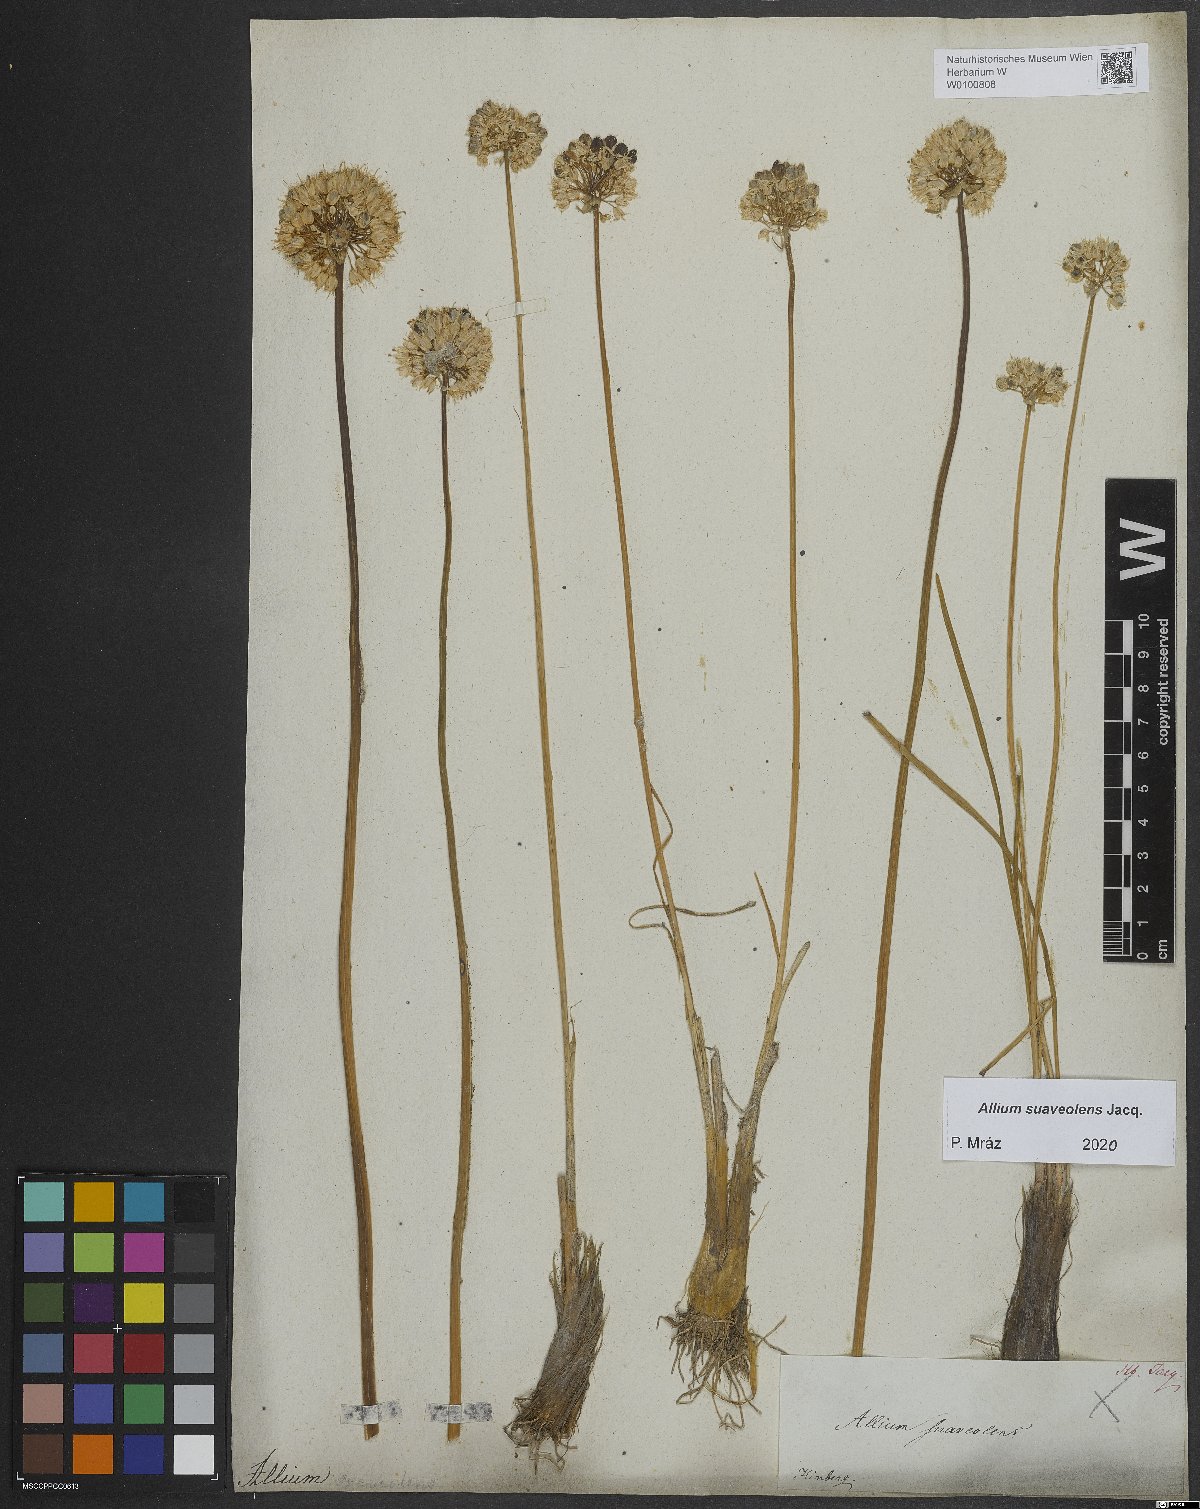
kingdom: Plantae
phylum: Tracheophyta
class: Liliopsida
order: Asparagales
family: Amaryllidaceae
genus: Allium
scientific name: Allium suaveolens
